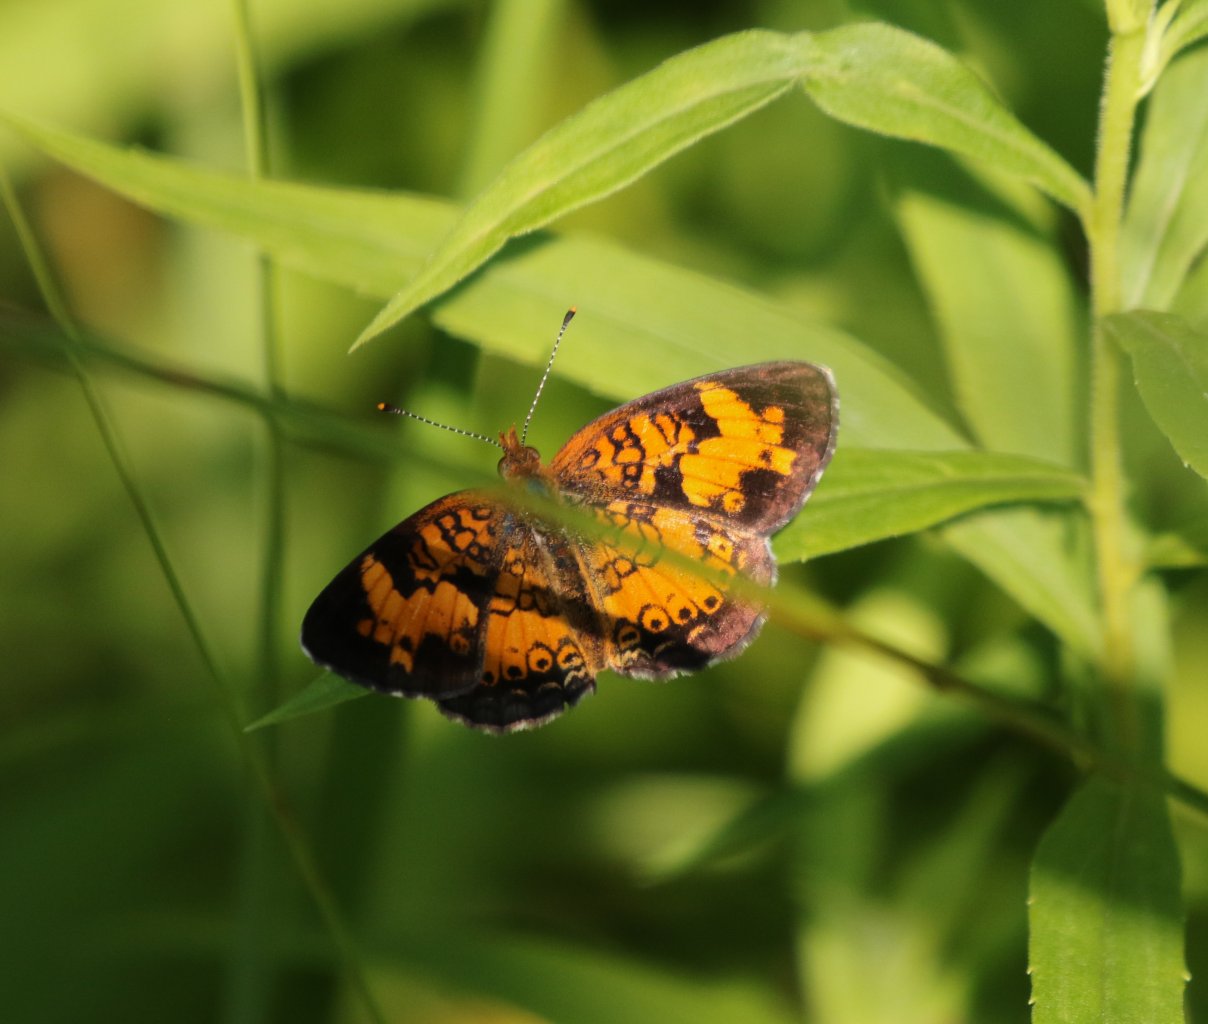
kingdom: Animalia
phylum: Arthropoda
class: Insecta
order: Lepidoptera
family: Nymphalidae
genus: Phyciodes
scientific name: Phyciodes tharos
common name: Northern Crescent
